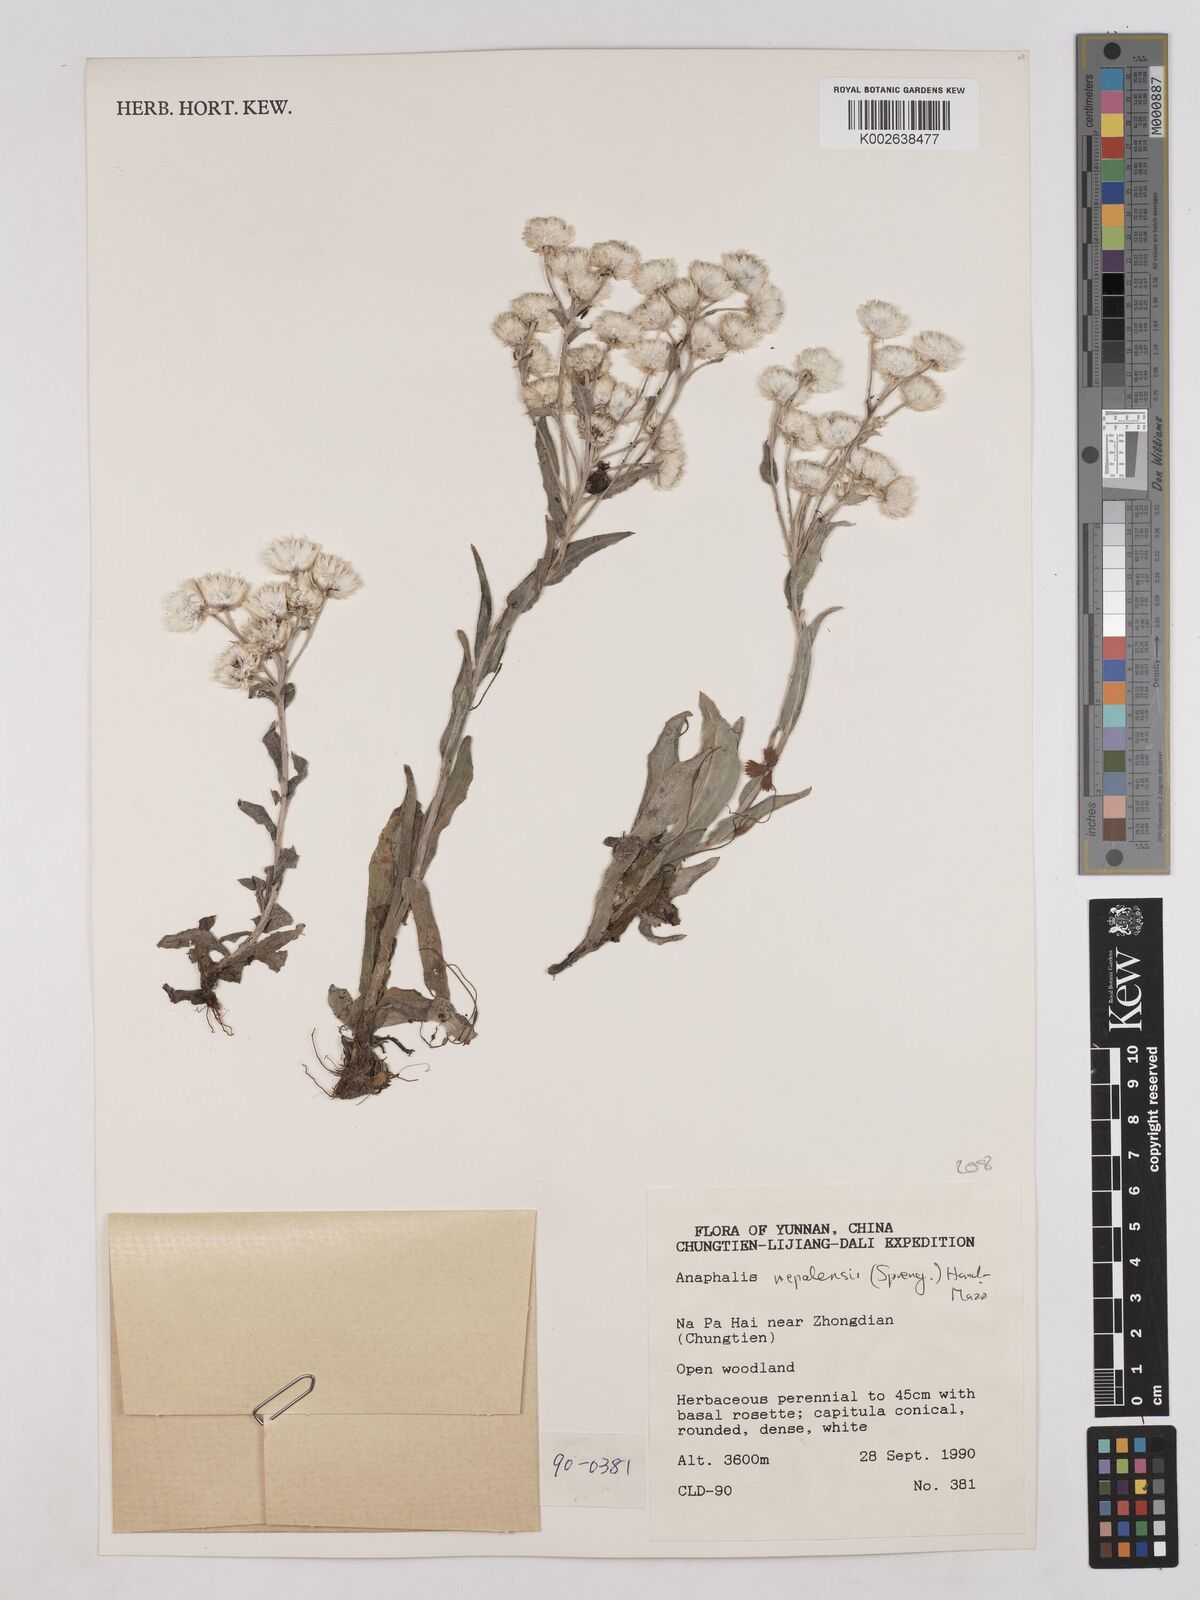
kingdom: Plantae
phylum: Tracheophyta
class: Magnoliopsida
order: Asterales
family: Asteraceae
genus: Anaphalis
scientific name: Anaphalis nepalensis
